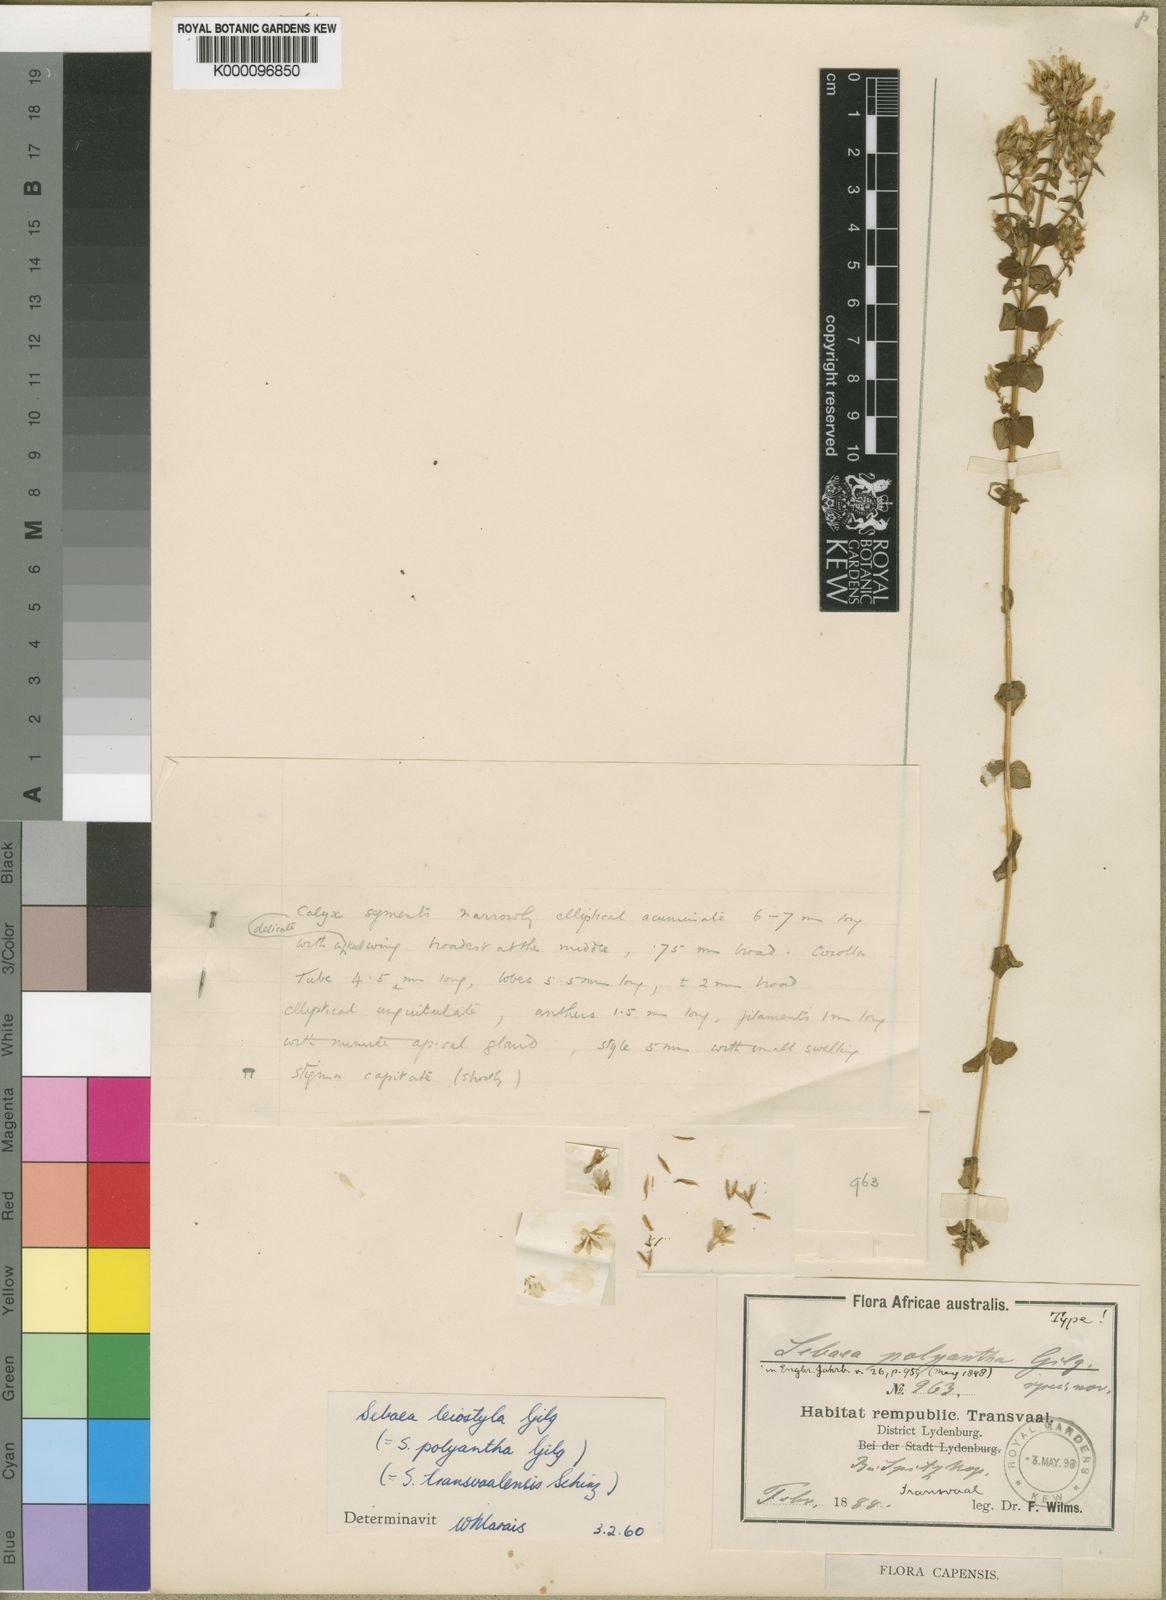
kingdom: Plantae
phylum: Tracheophyta
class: Magnoliopsida
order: Gentianales
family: Gentianaceae
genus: Sebaea
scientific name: Sebaea leiostyla
